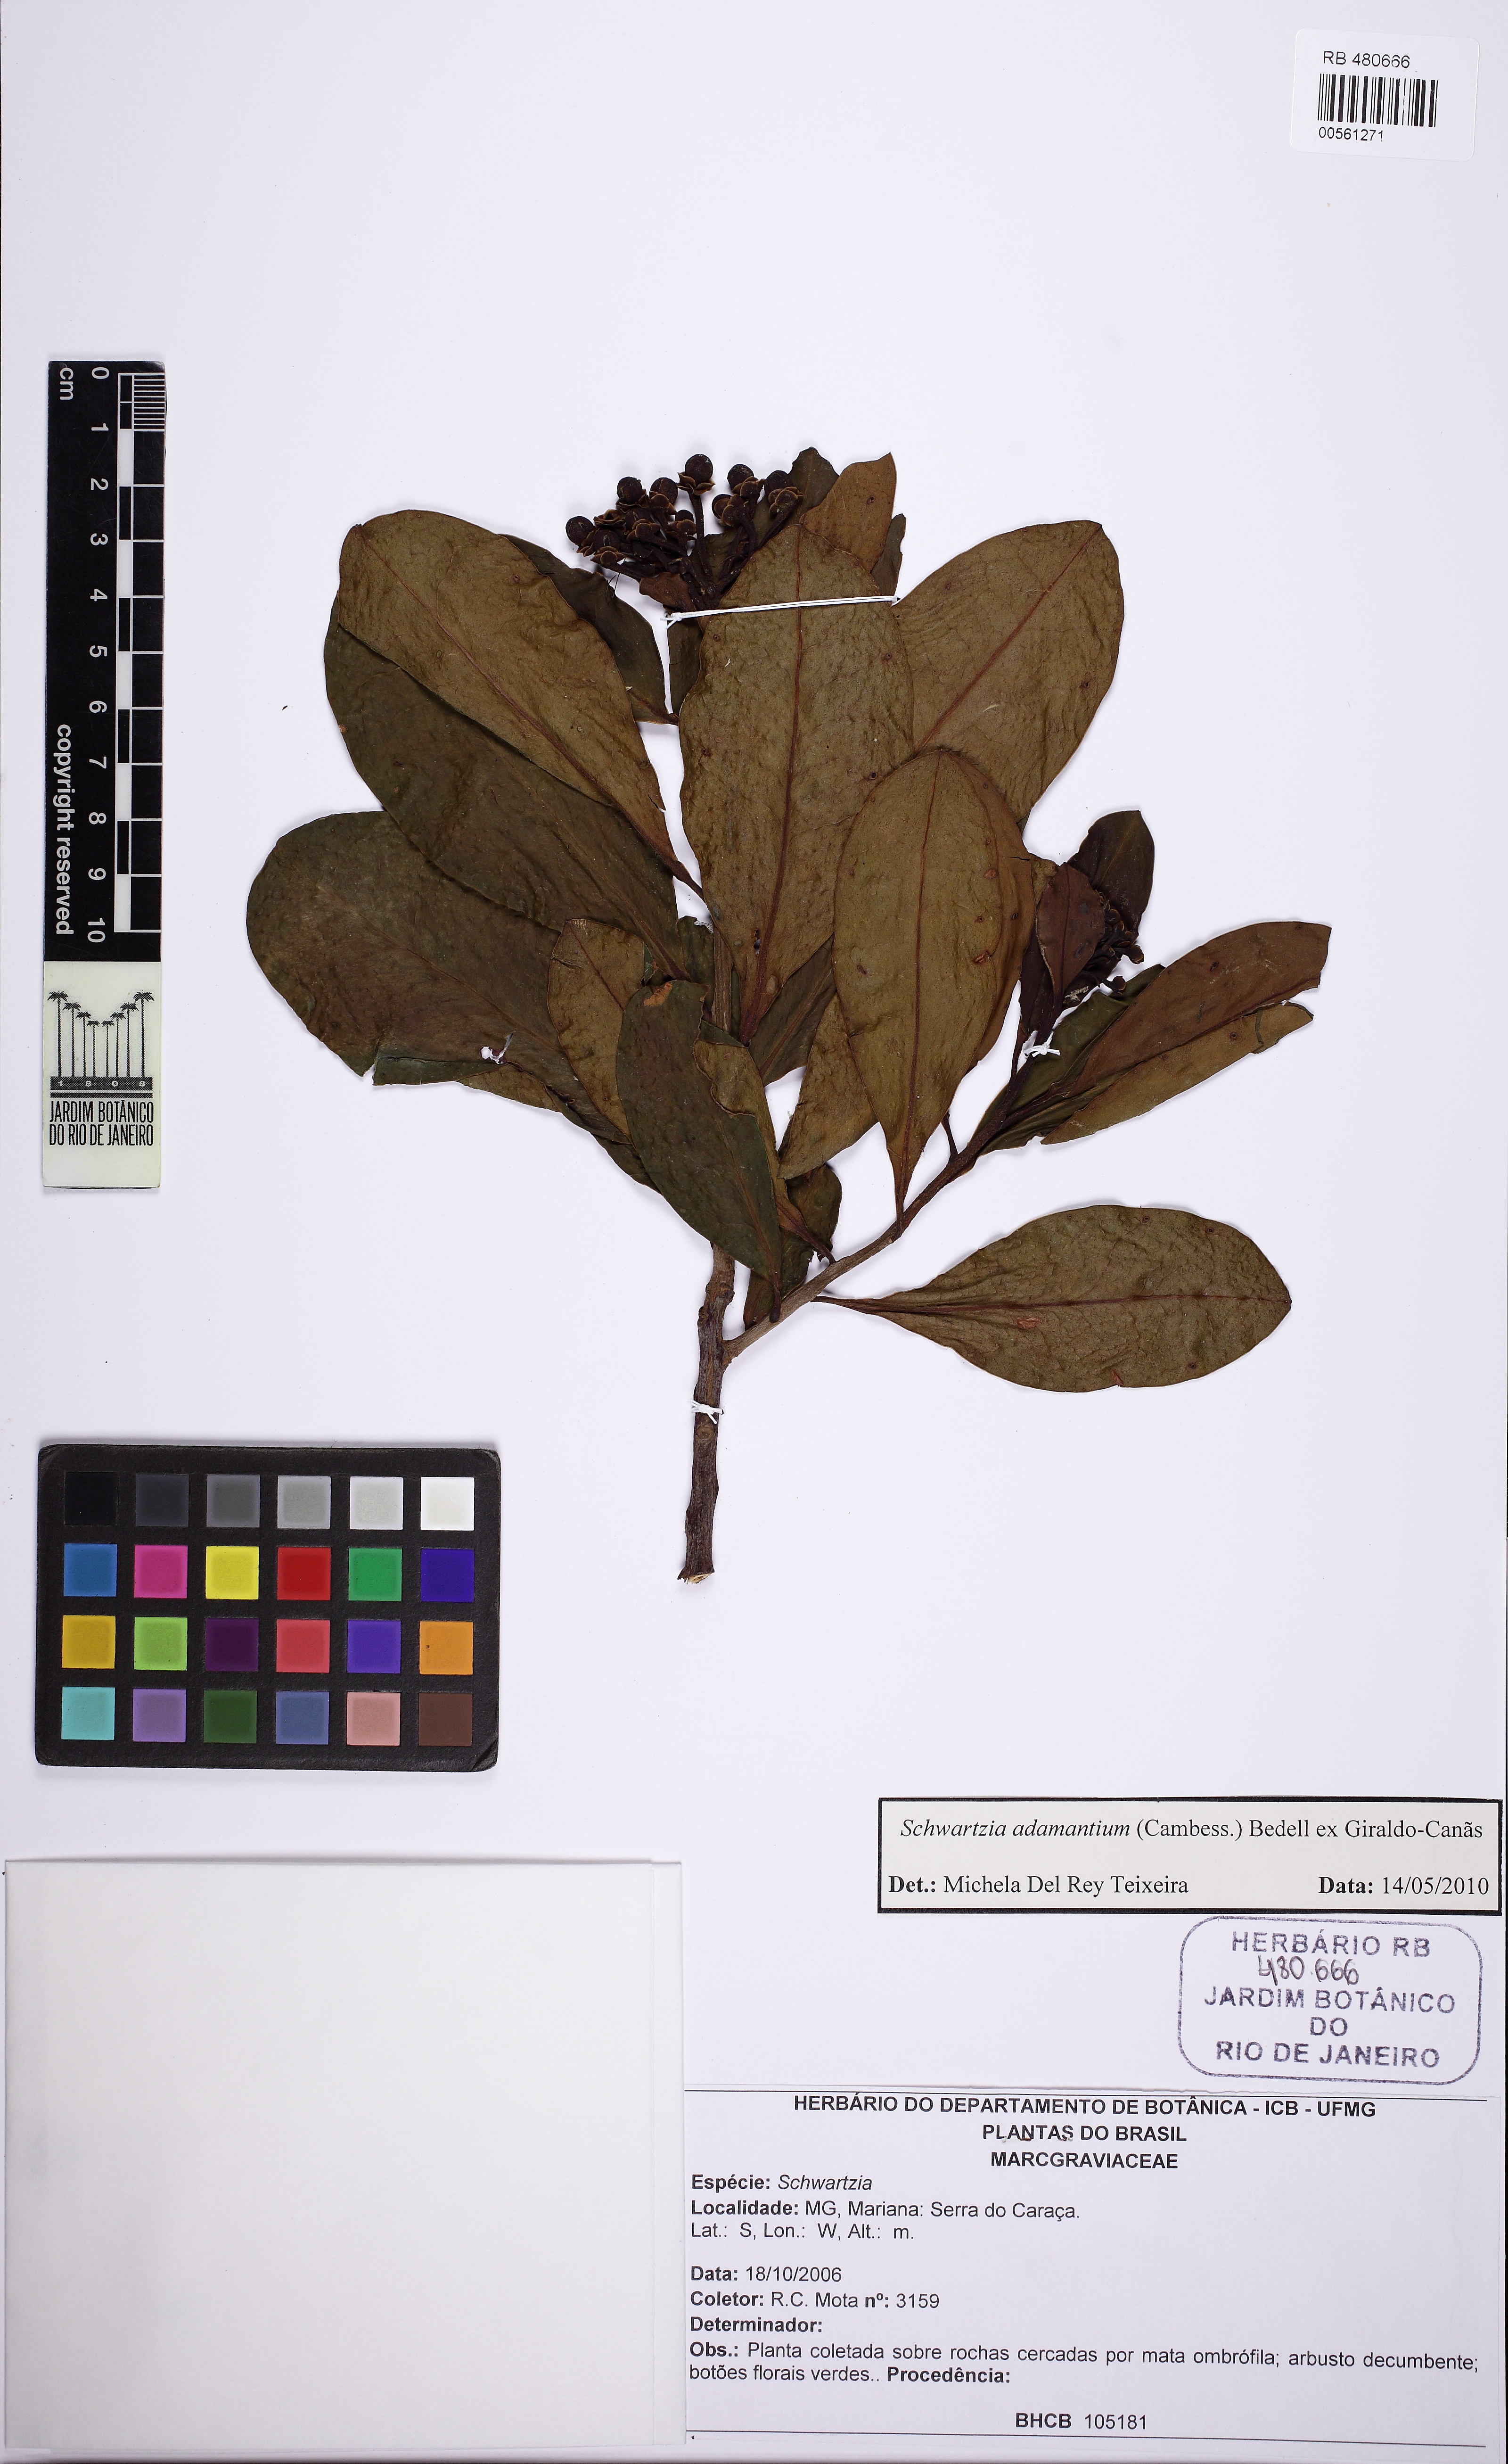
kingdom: Plantae
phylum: Tracheophyta
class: Magnoliopsida
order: Ericales
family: Marcgraviaceae
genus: Schwartzia
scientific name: Schwartzia adamantium
